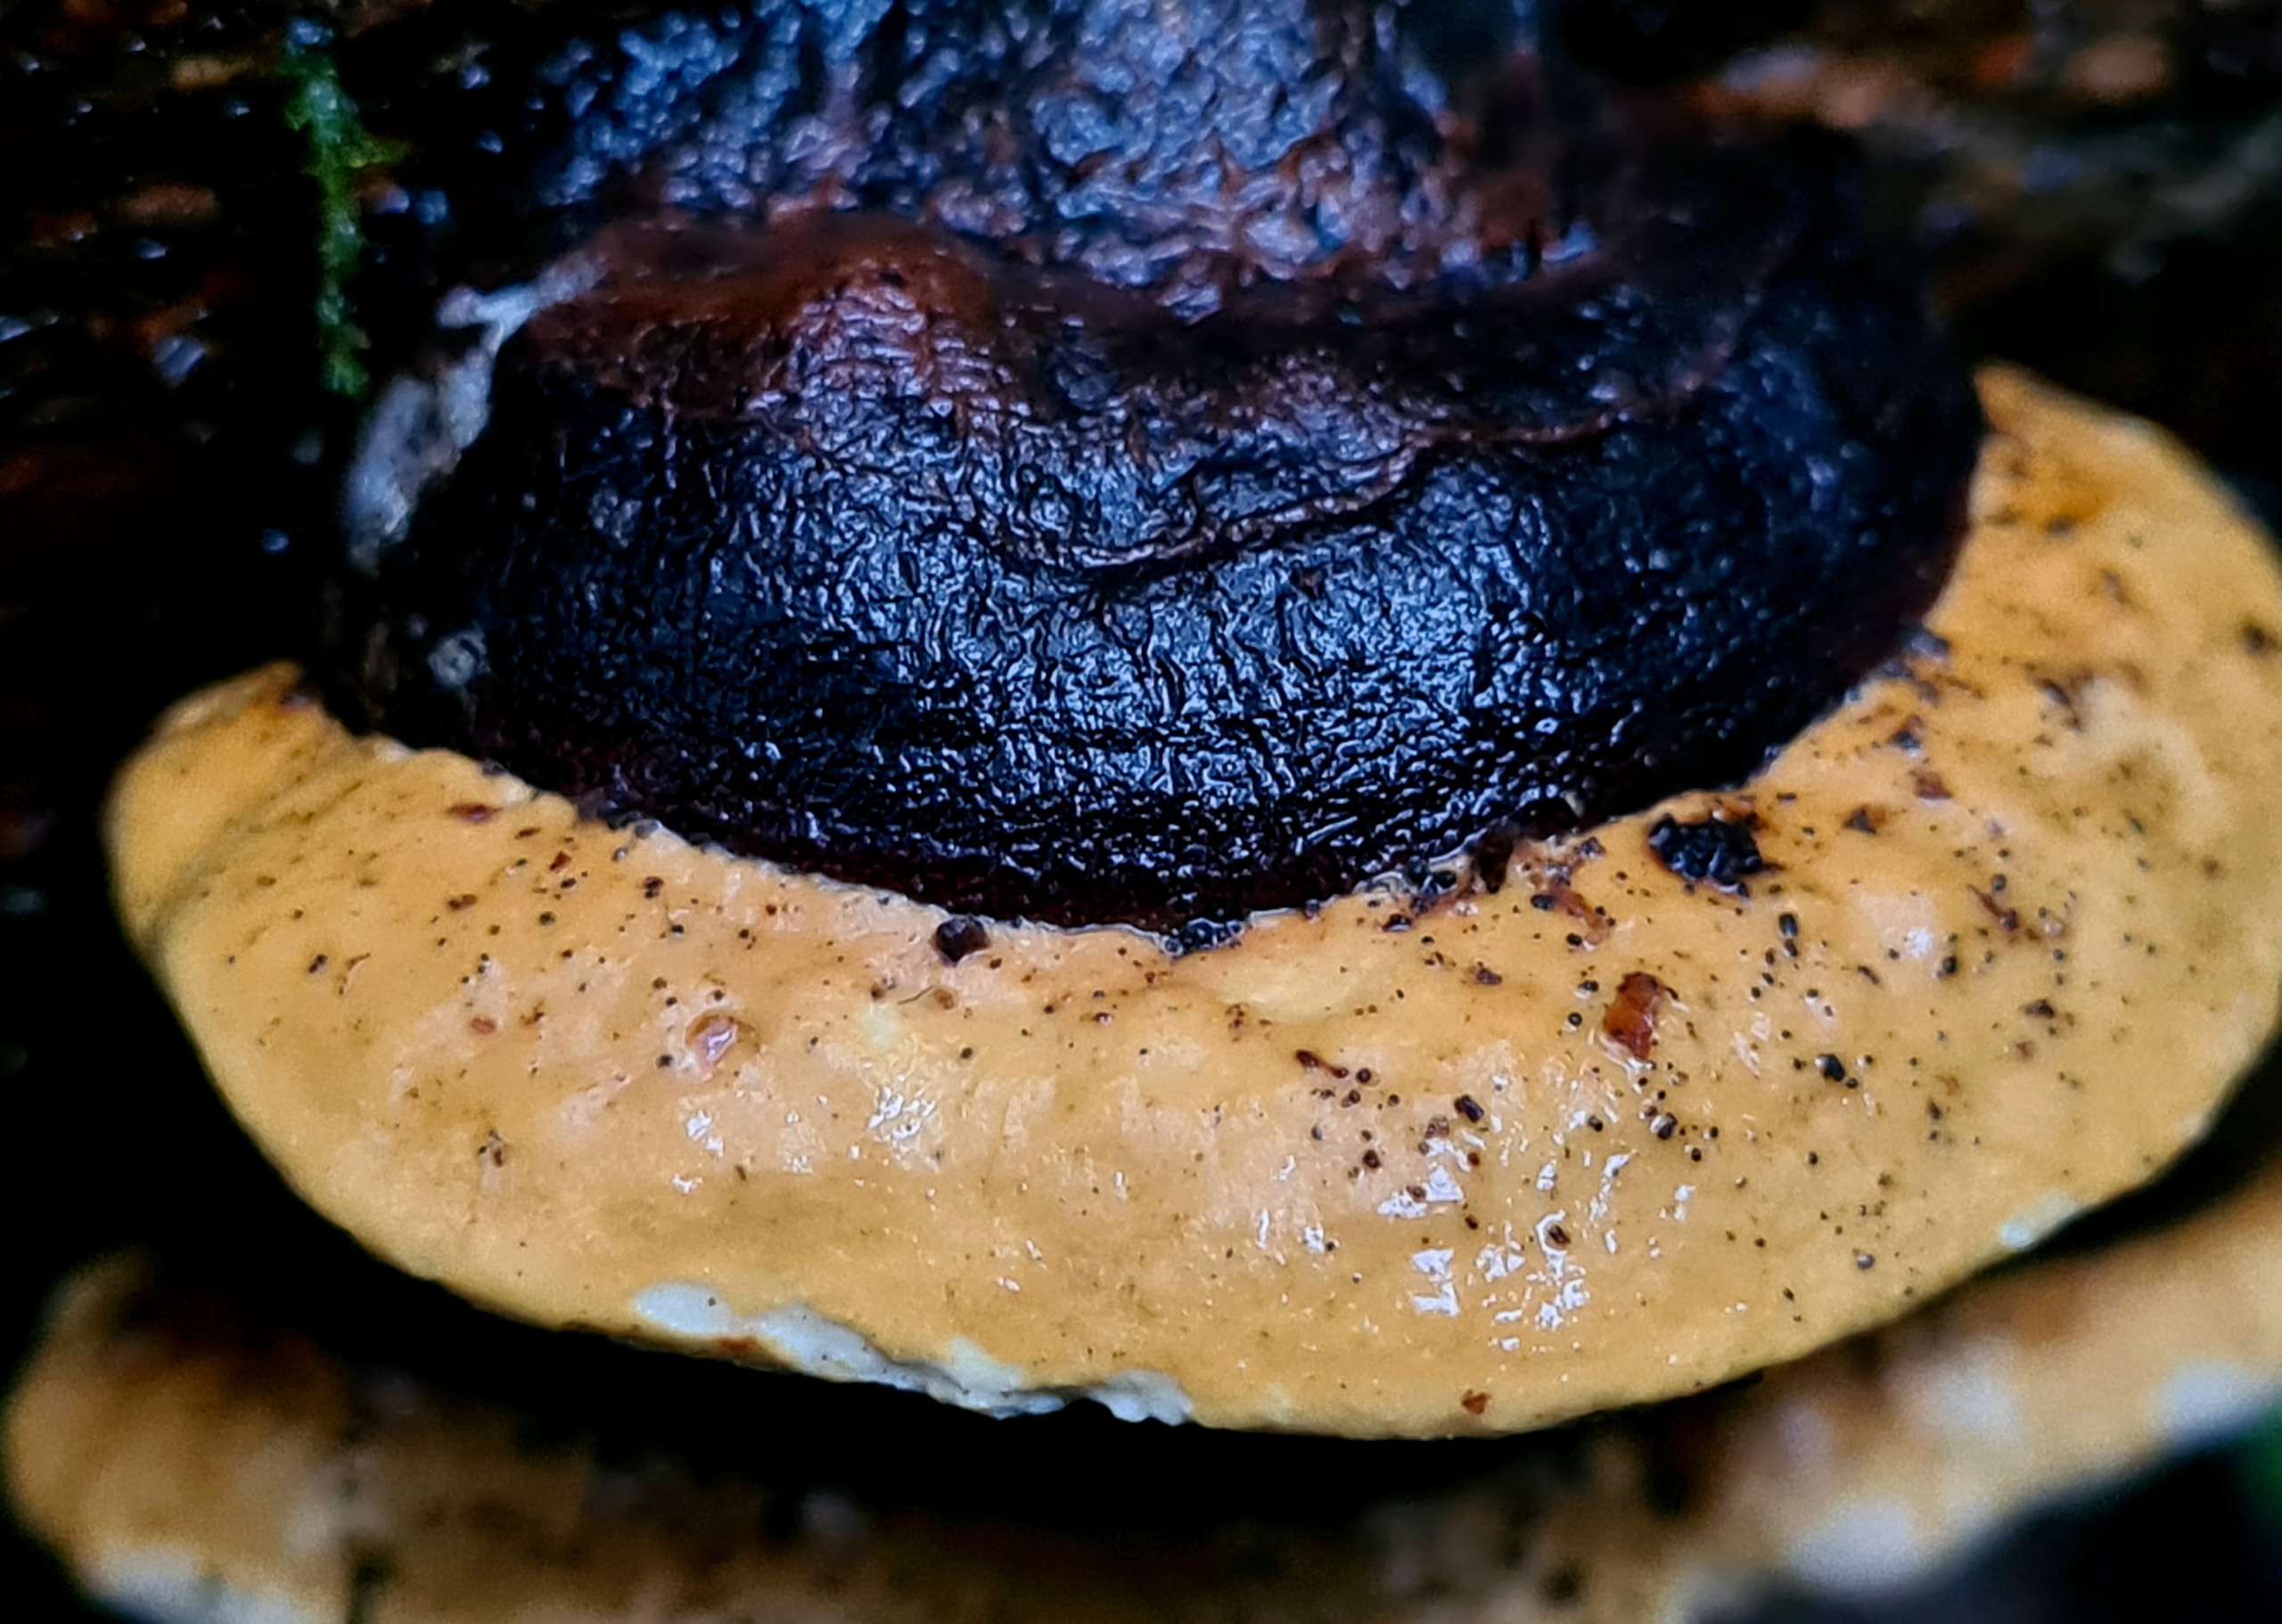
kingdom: Fungi
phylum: Basidiomycota
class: Agaricomycetes
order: Polyporales
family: Fomitopsidaceae
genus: Fomitopsis
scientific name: Fomitopsis pinicola
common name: Randbæltet hovporesvamp
